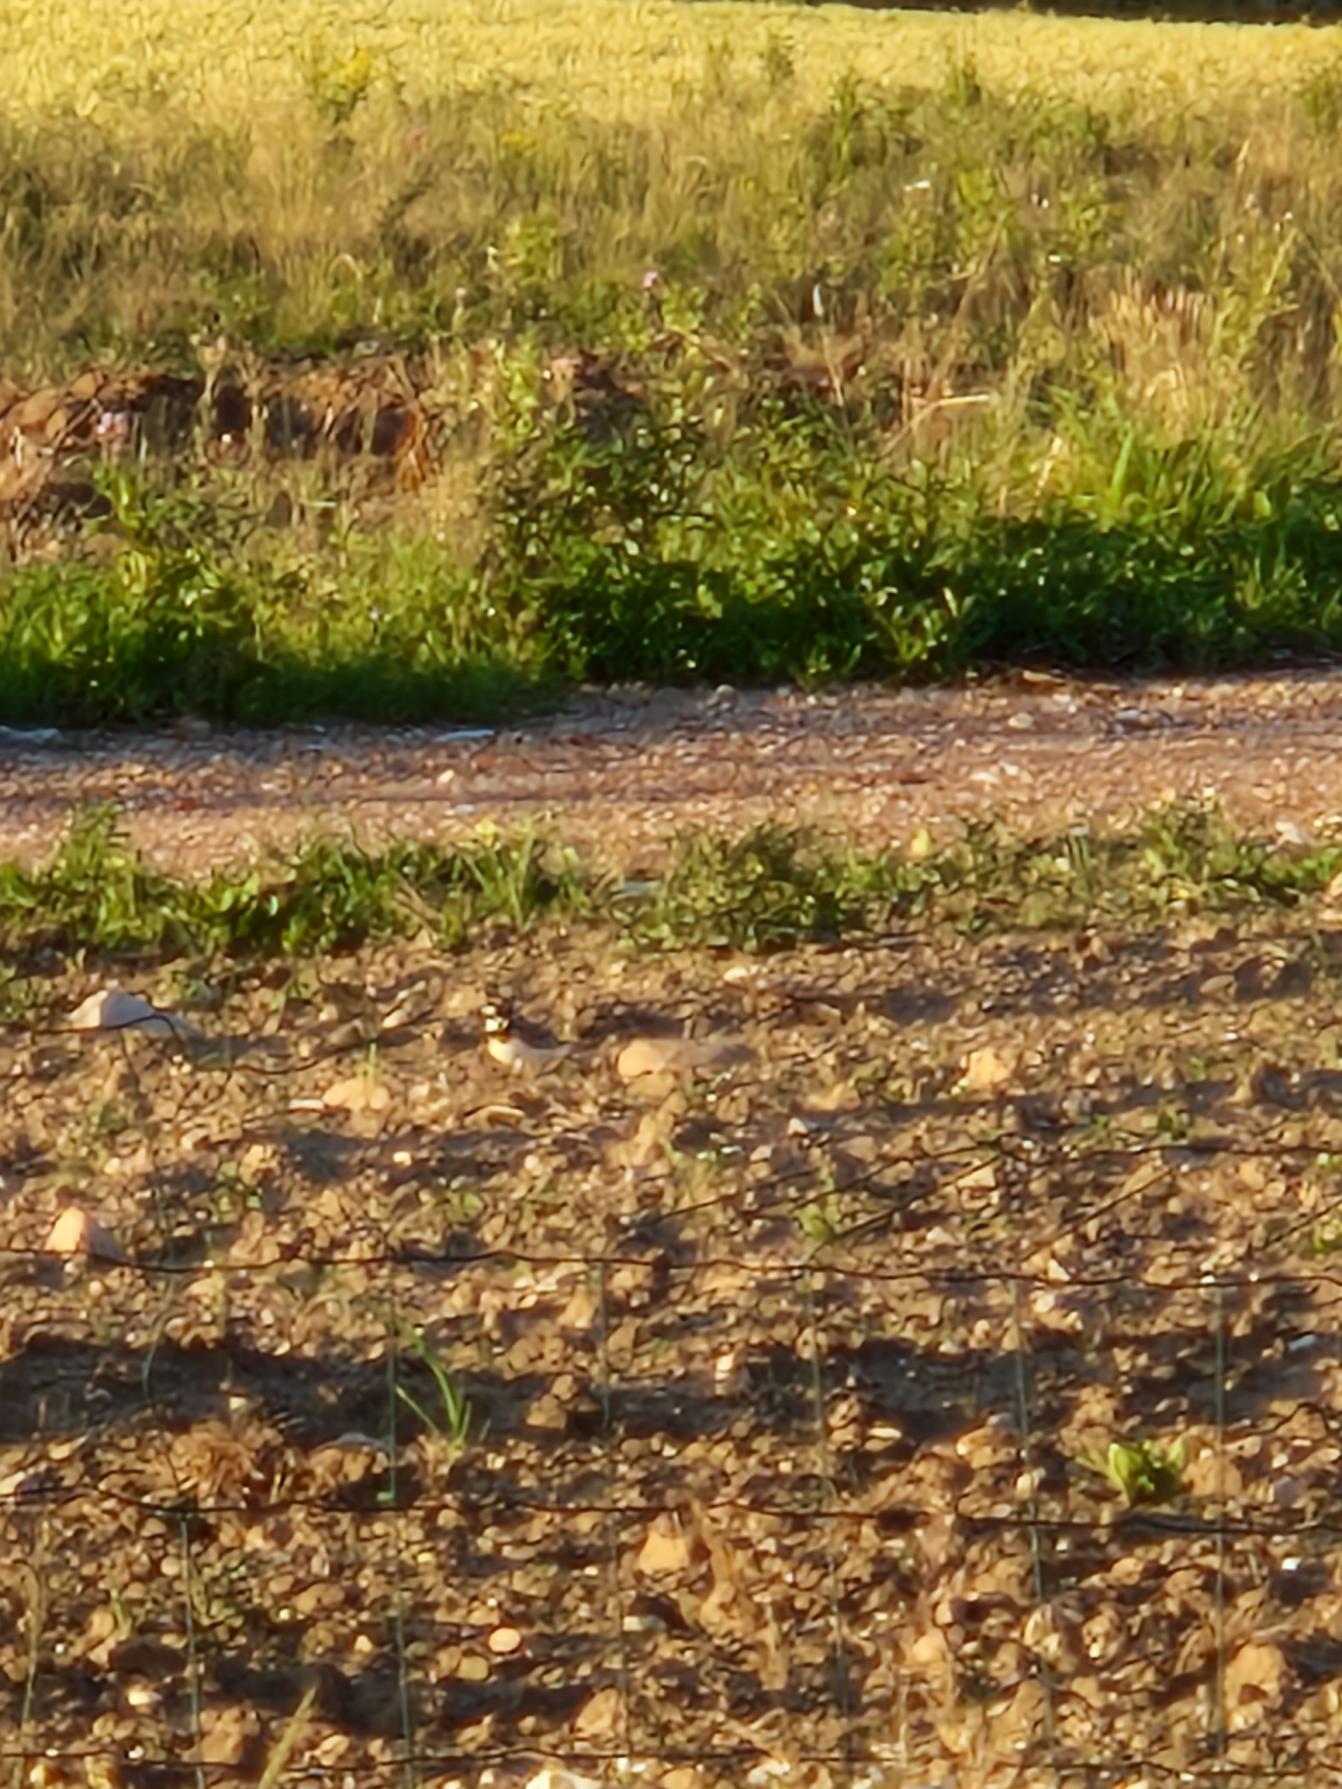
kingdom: Animalia
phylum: Chordata
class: Aves
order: Charadriiformes
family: Charadriidae
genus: Charadrius
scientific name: Charadrius dubius
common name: Lille præstekrave
